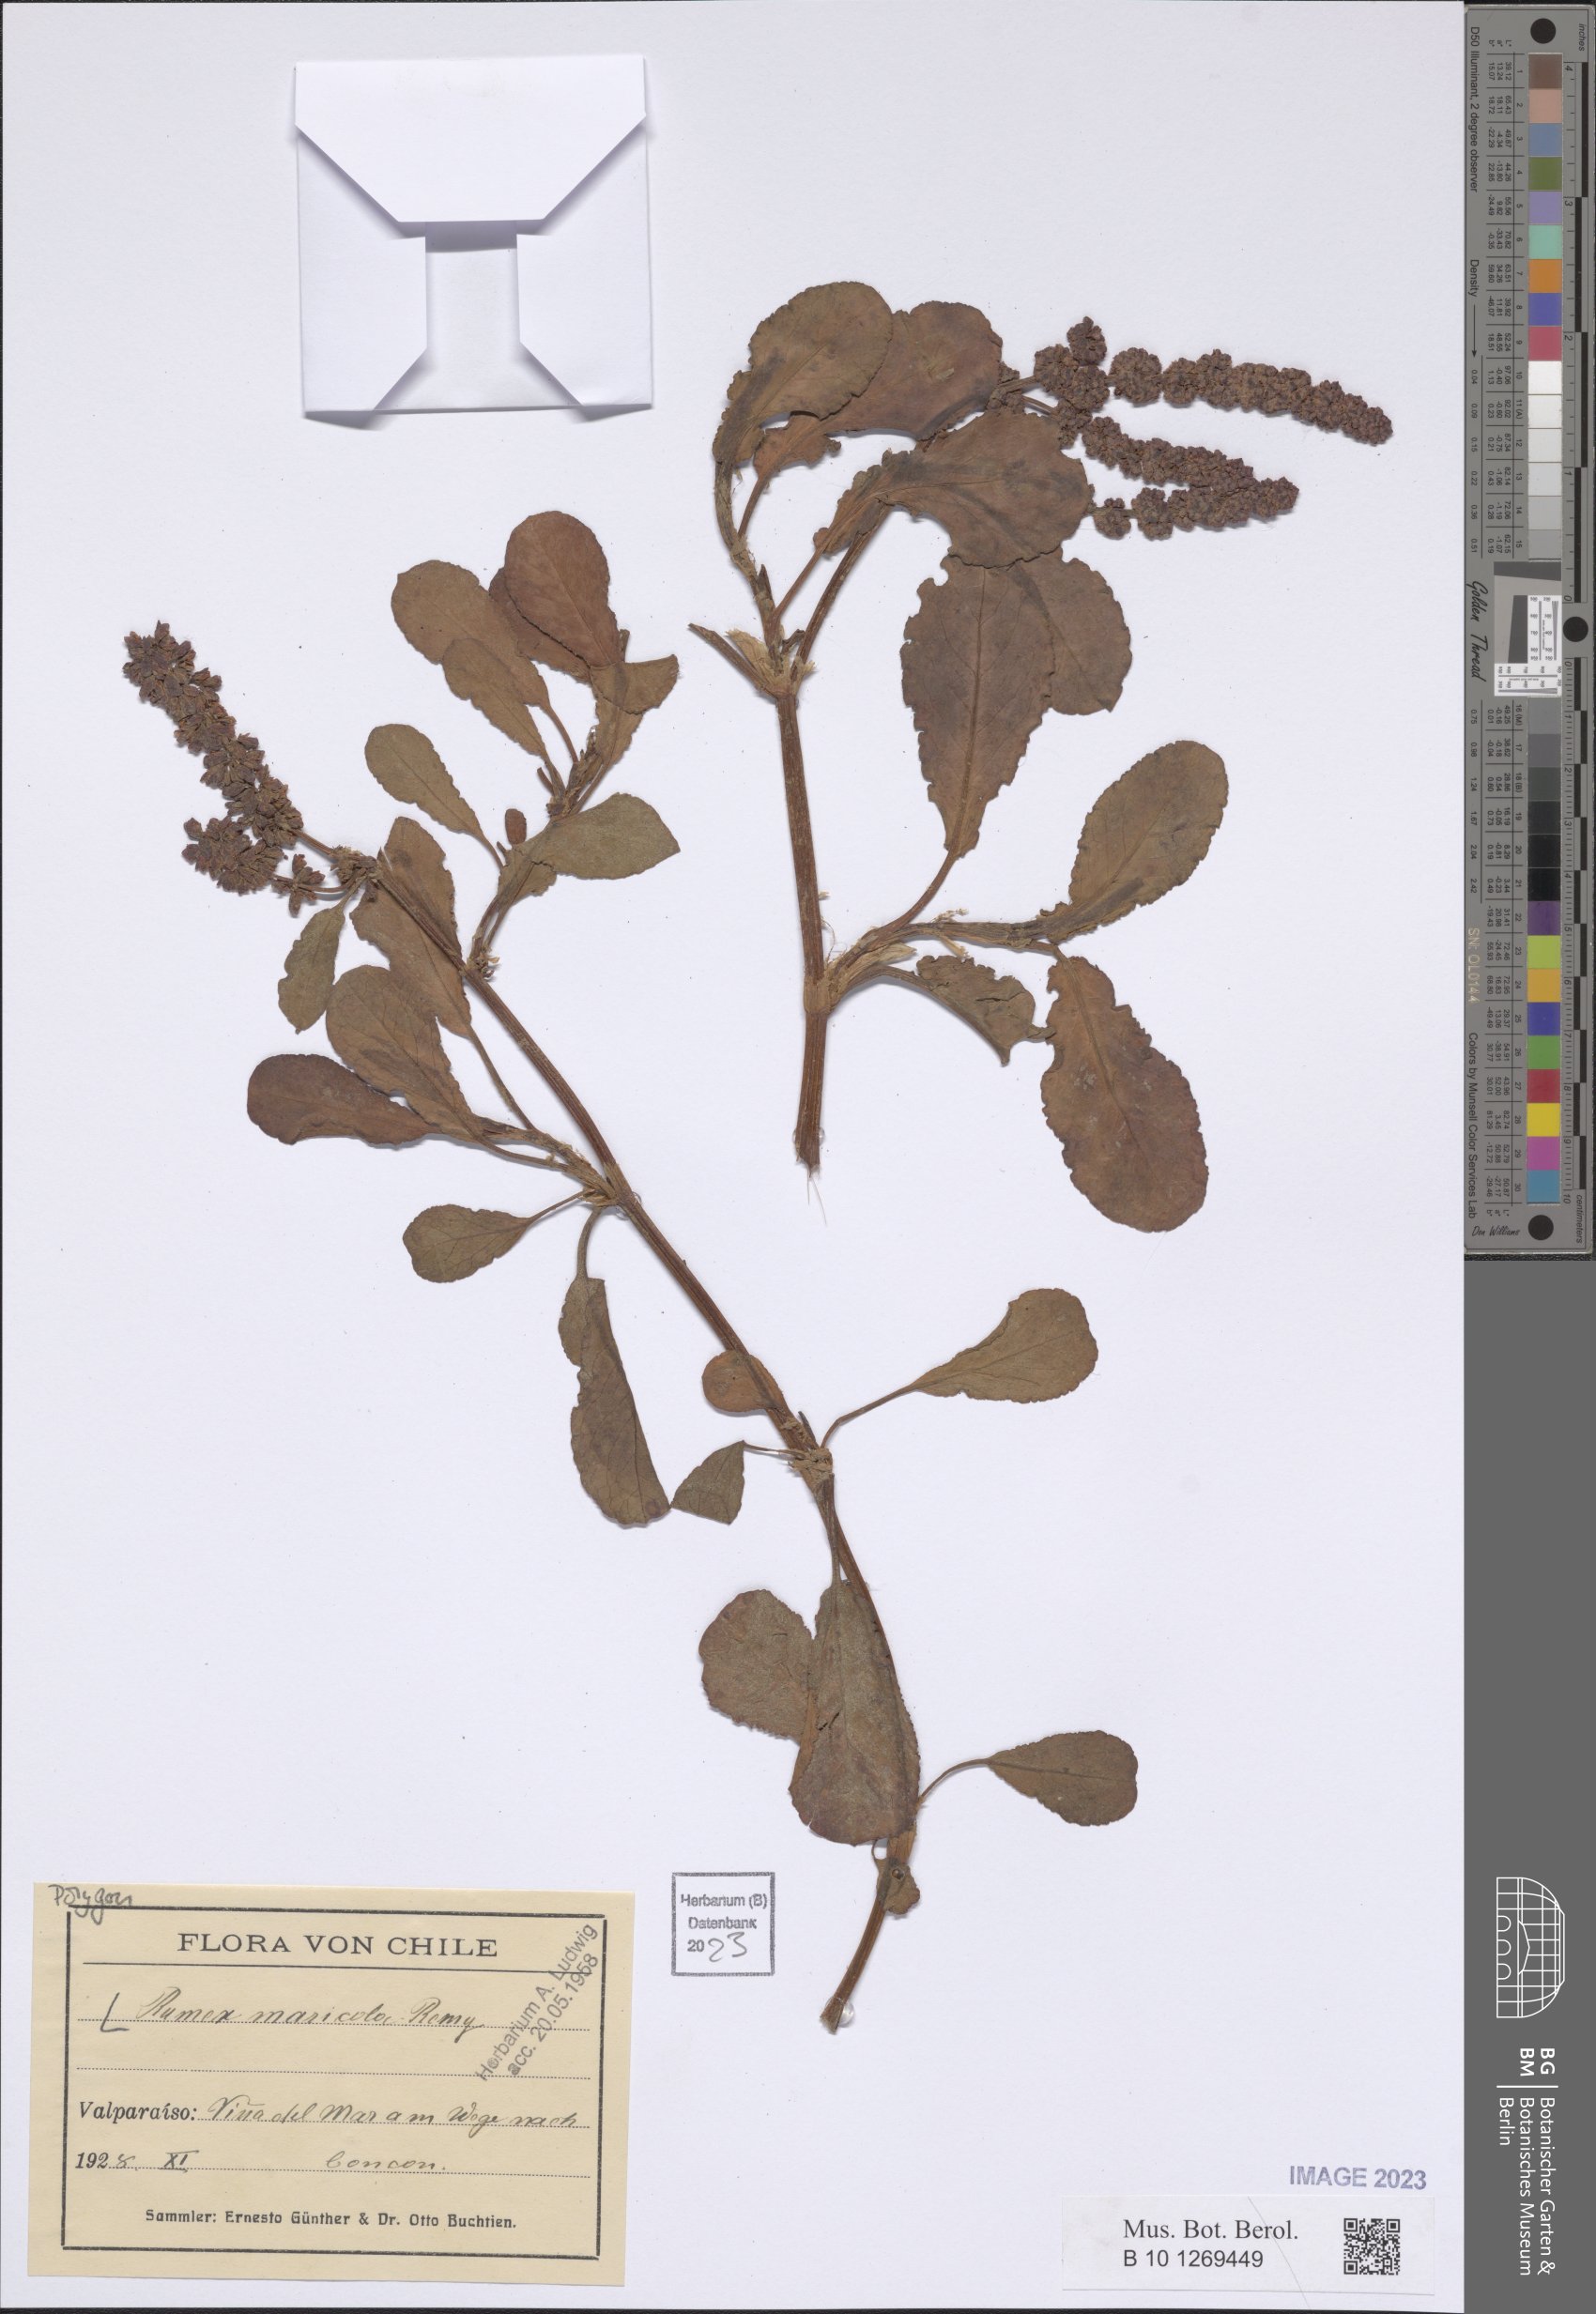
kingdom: Plantae
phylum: Tracheophyta
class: Magnoliopsida
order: Caryophyllales
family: Polygonaceae
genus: Rumex
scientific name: Rumex maricola
